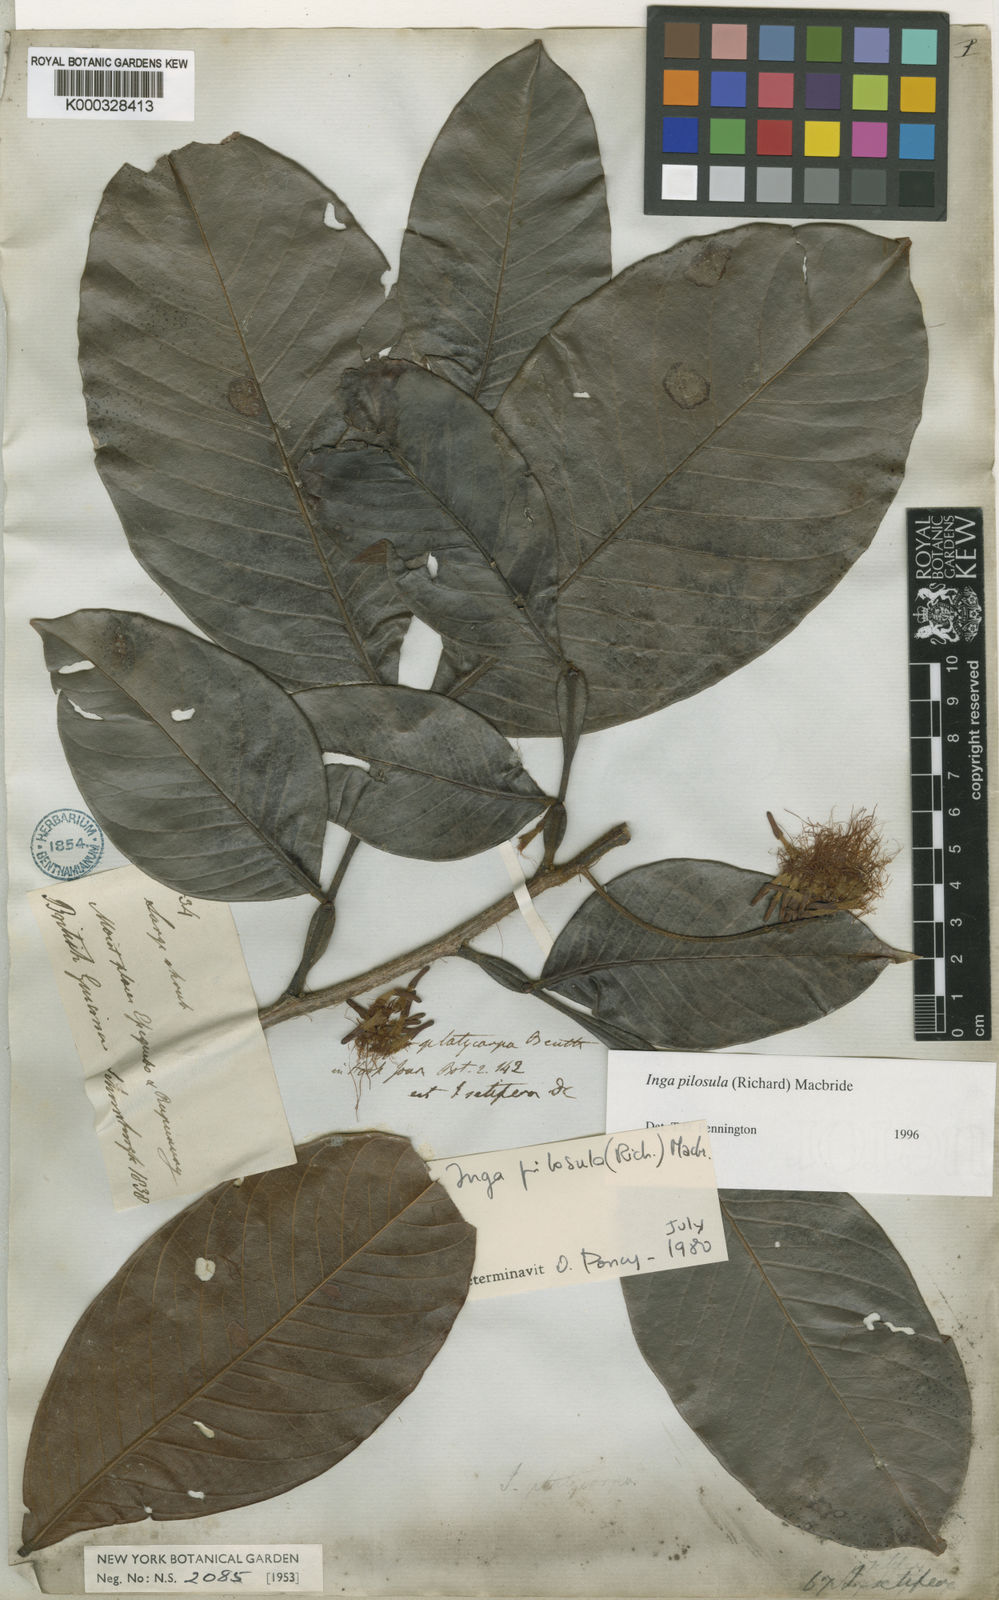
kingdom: Plantae
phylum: Tracheophyta
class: Magnoliopsida
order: Fabales
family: Fabaceae
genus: Inga
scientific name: Inga pilosula
